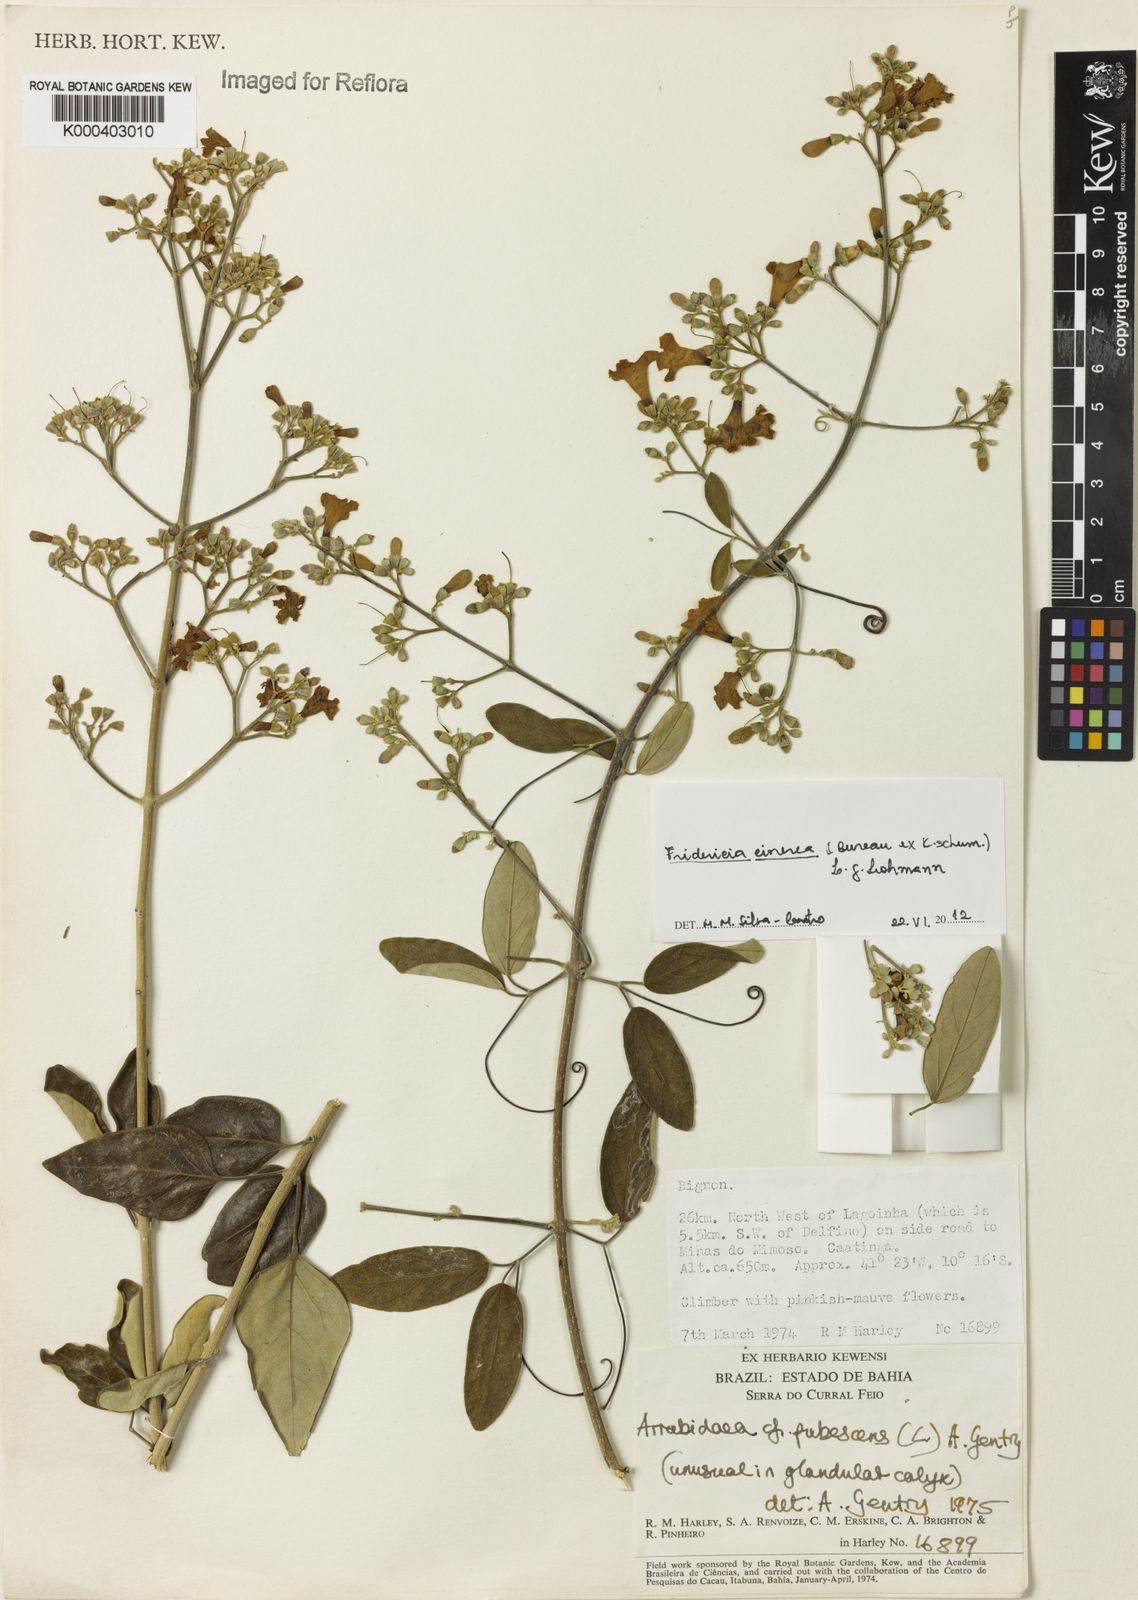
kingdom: Plantae
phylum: Tracheophyta
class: Magnoliopsida
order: Lamiales
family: Bignoniaceae
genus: Fridericia
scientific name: Fridericia cinerea
